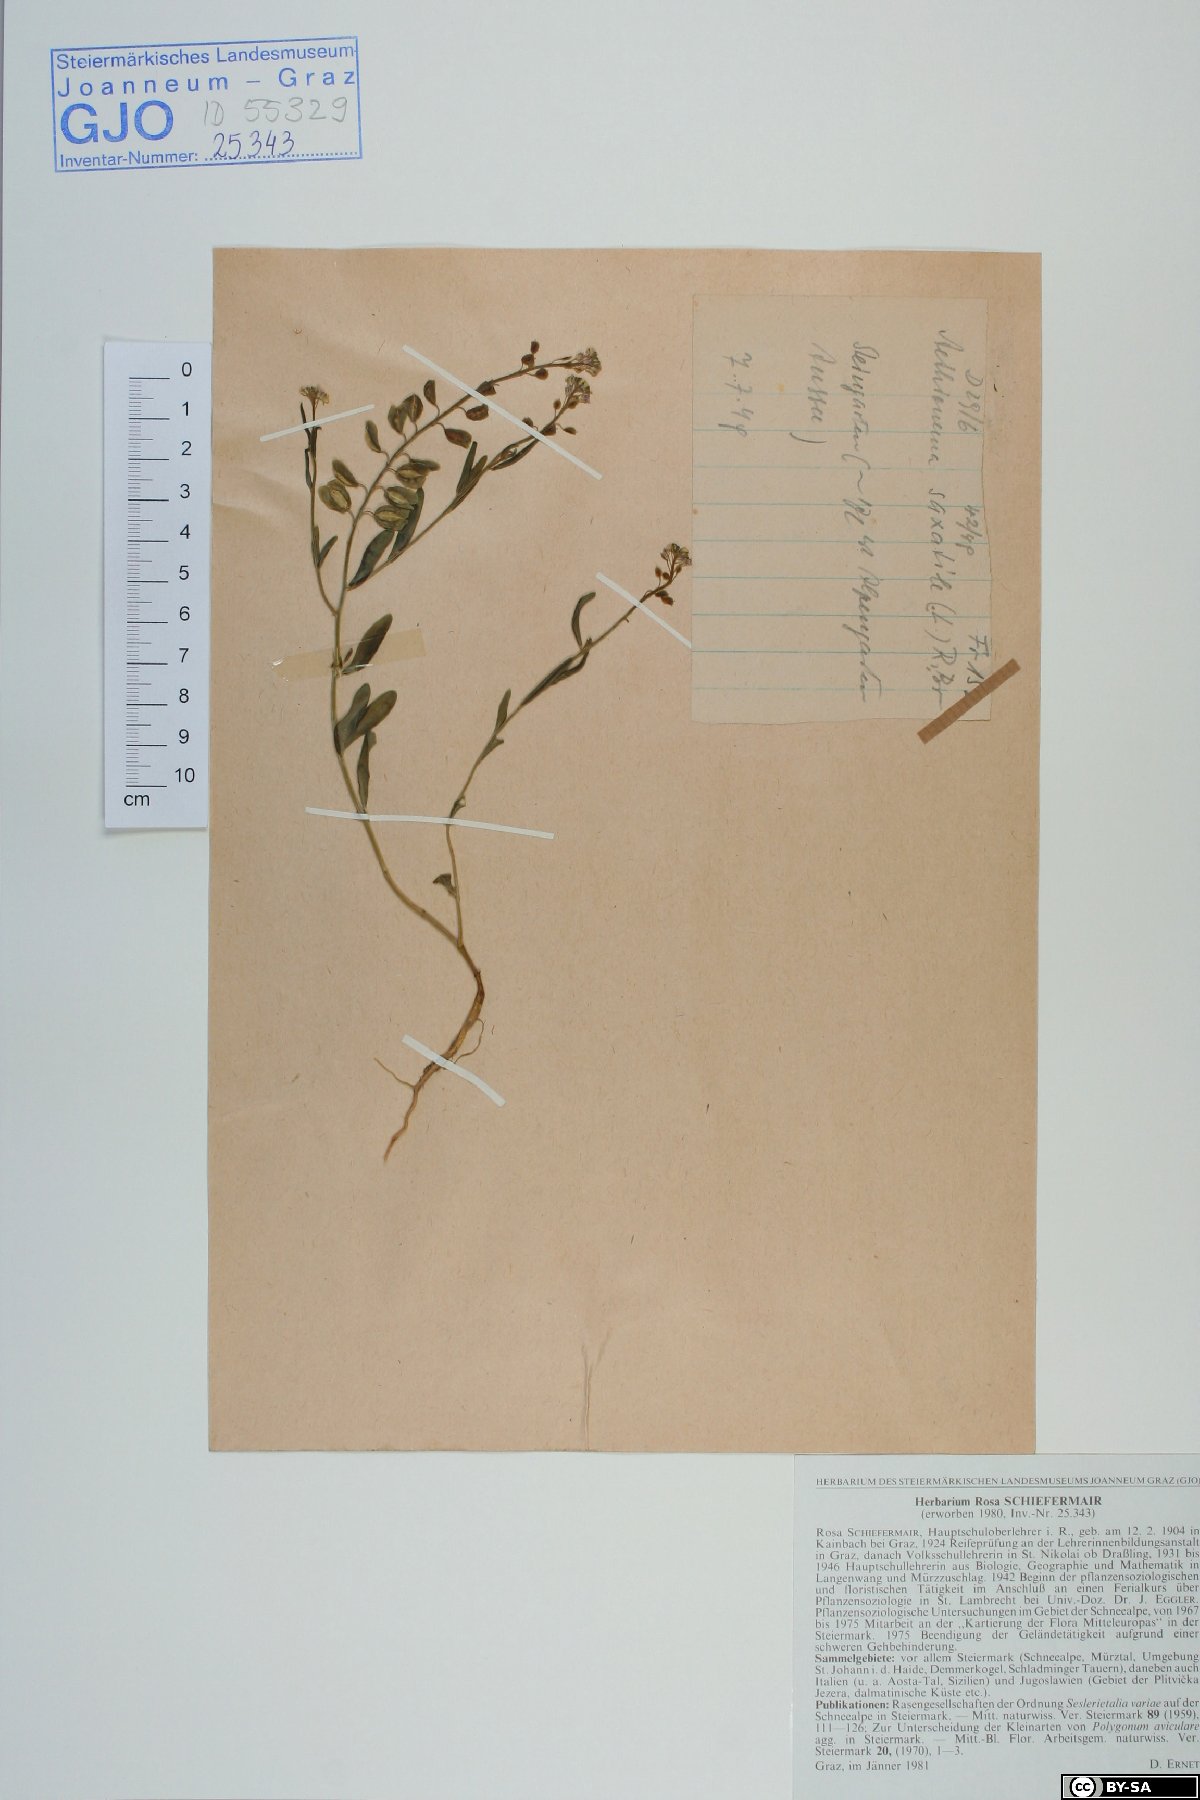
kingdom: Plantae
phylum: Tracheophyta
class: Magnoliopsida
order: Brassicales
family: Brassicaceae
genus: Aethionema
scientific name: Aethionema saxatile
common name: Burnt candytuft
